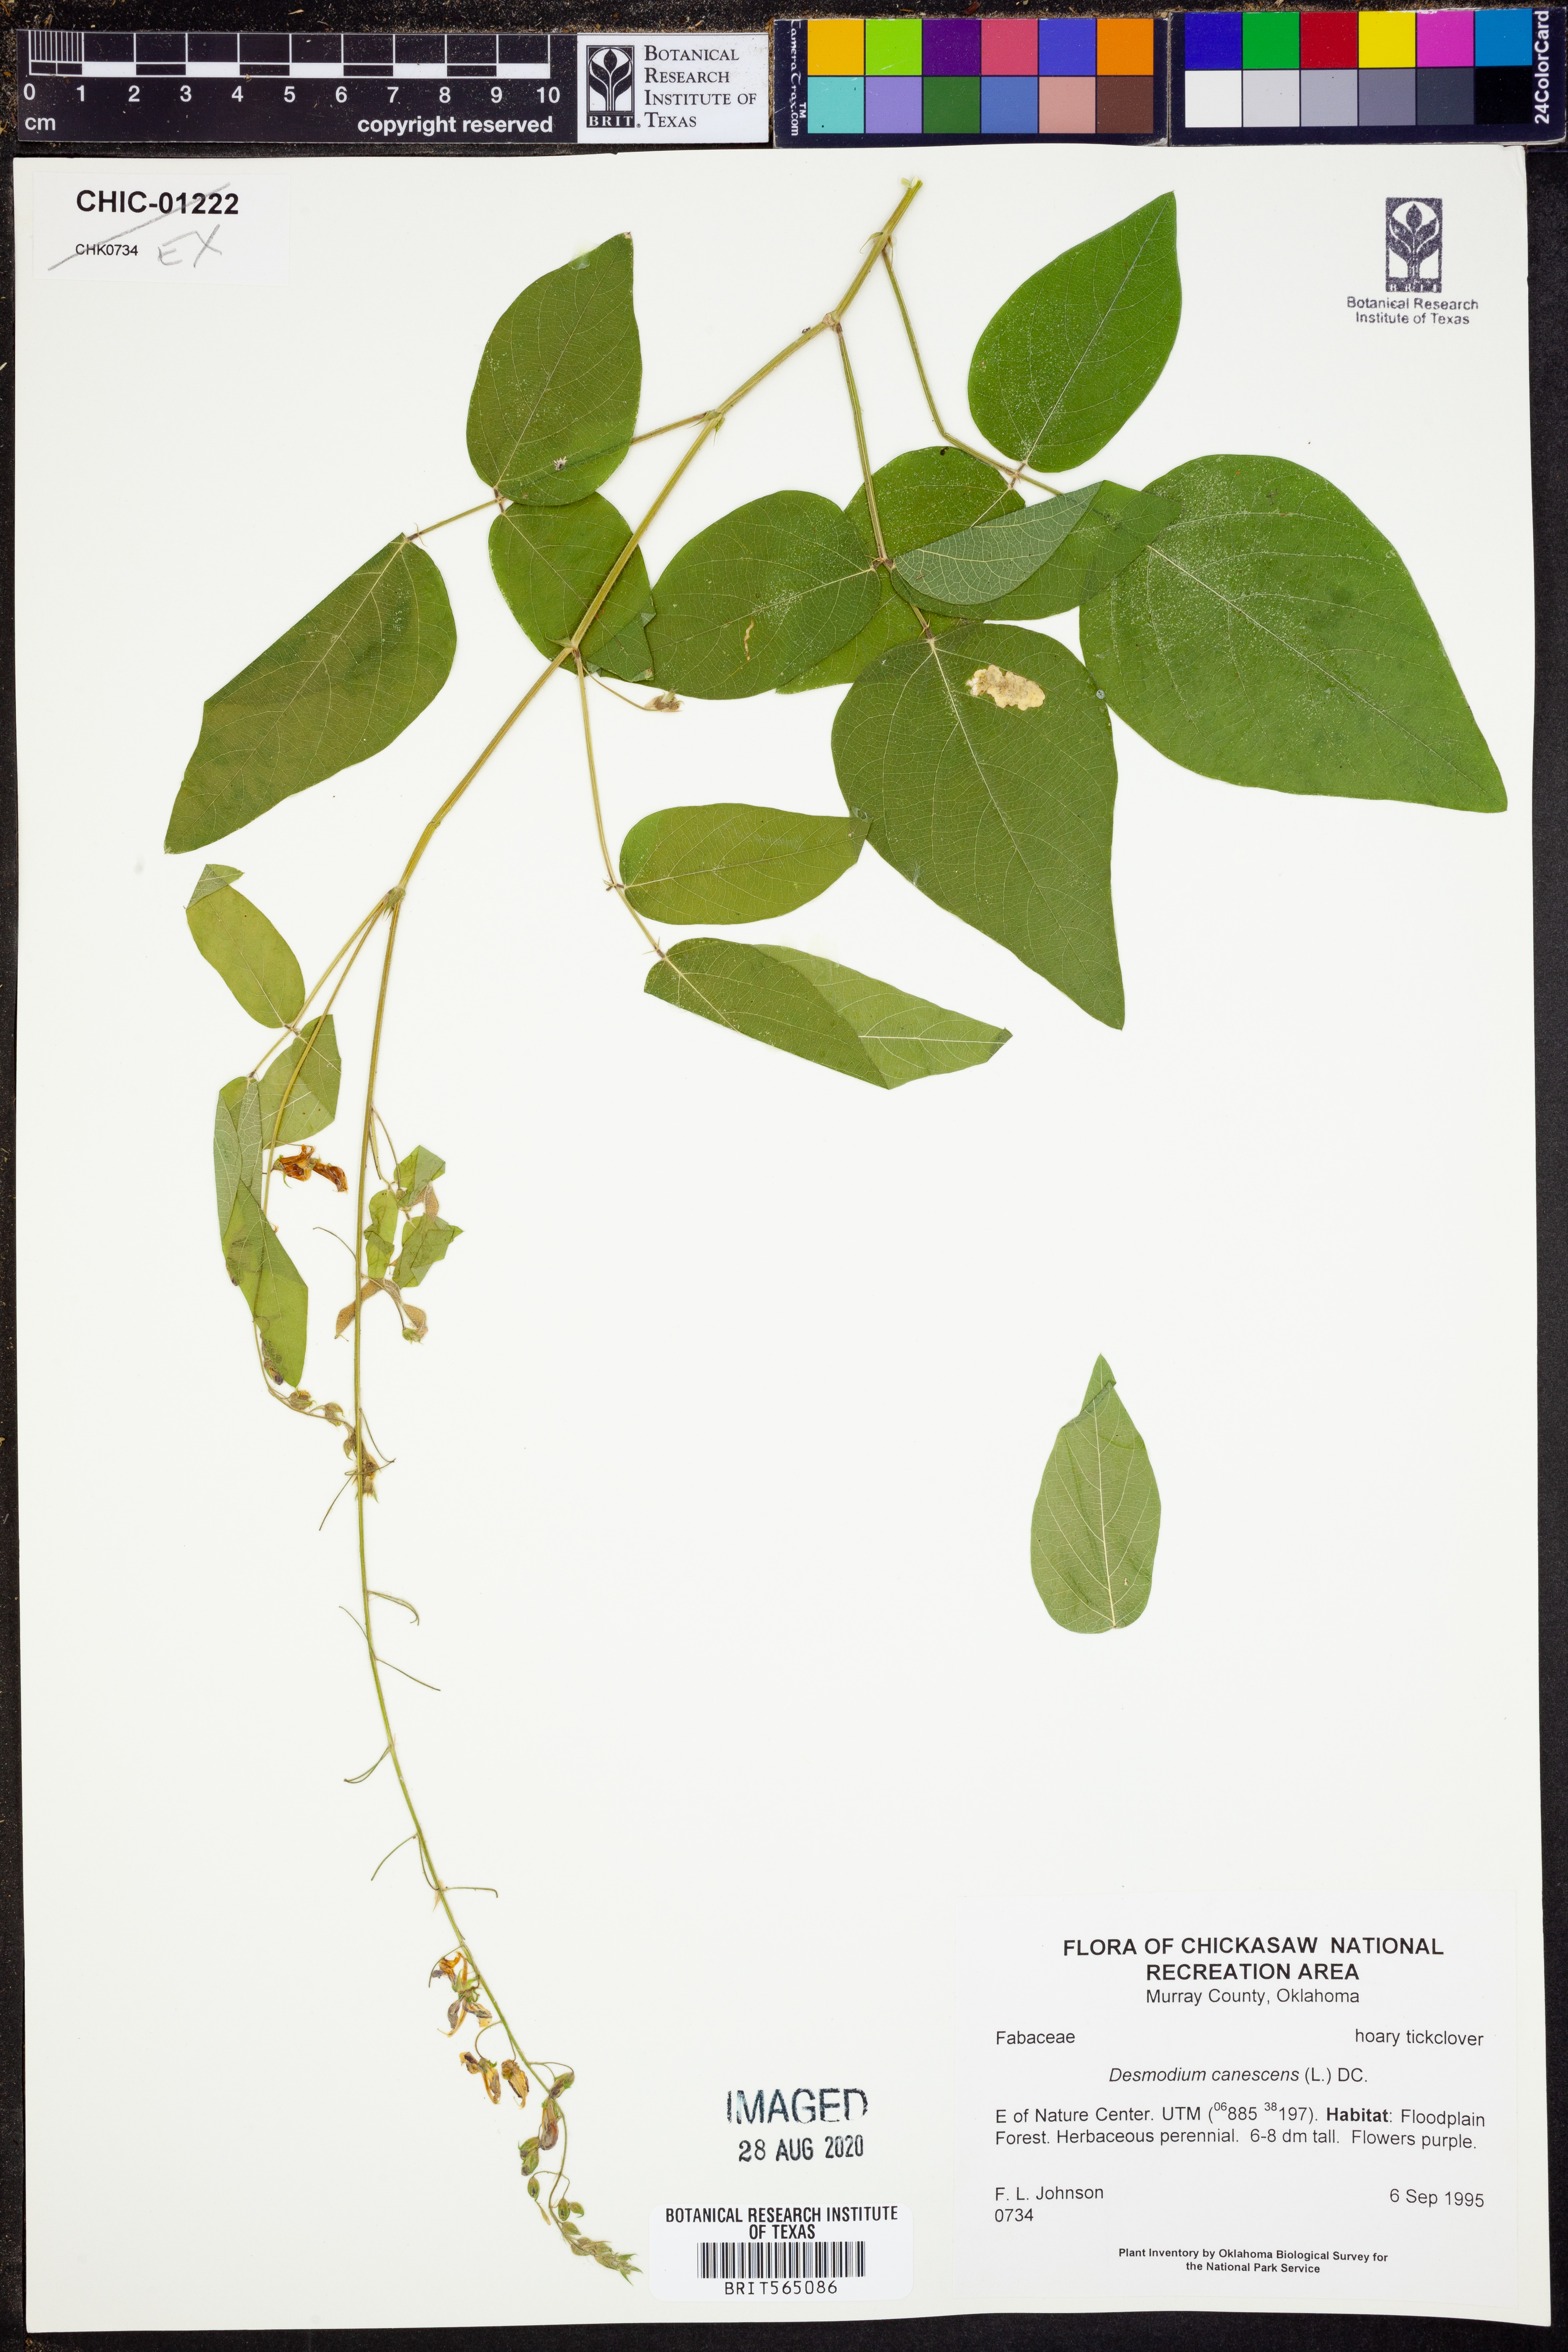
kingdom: Plantae
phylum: Tracheophyta
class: Magnoliopsida
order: Fabales
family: Fabaceae
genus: Desmodium
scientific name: Desmodium canescens
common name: Hoary tick-clover
